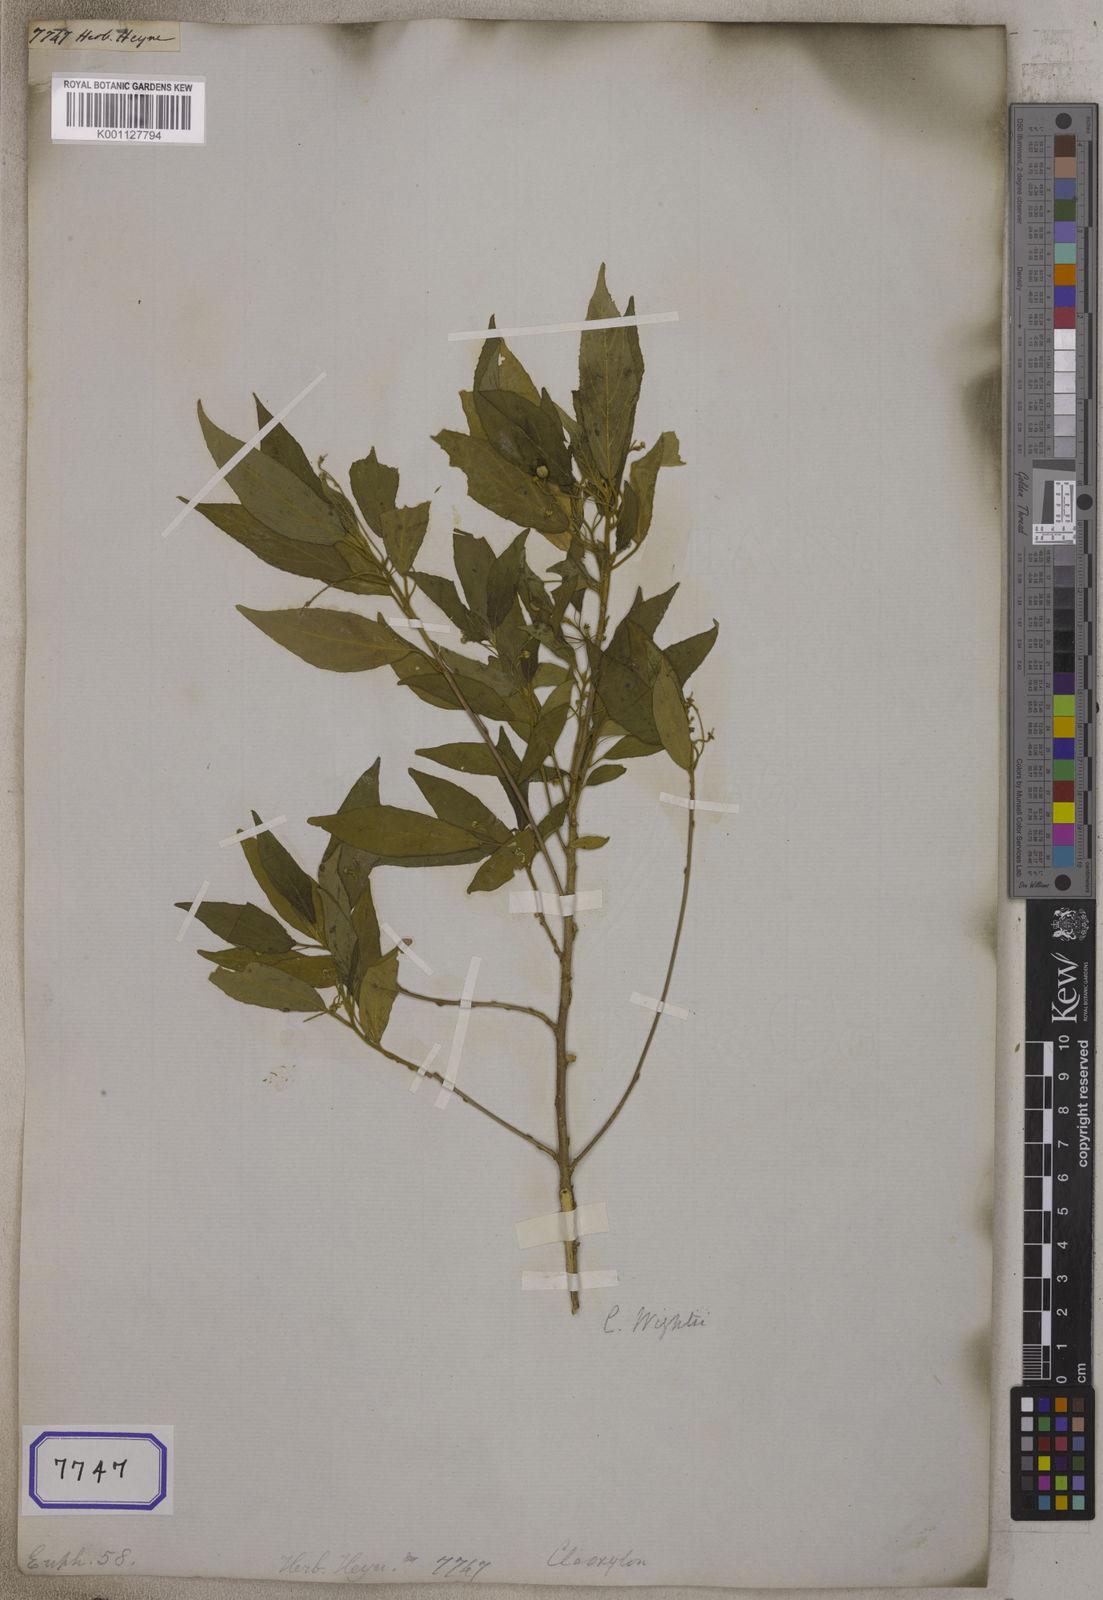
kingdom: Plantae
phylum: Tracheophyta
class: Magnoliopsida
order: Malpighiales
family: Euphorbiaceae
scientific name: Euphorbiaceae
